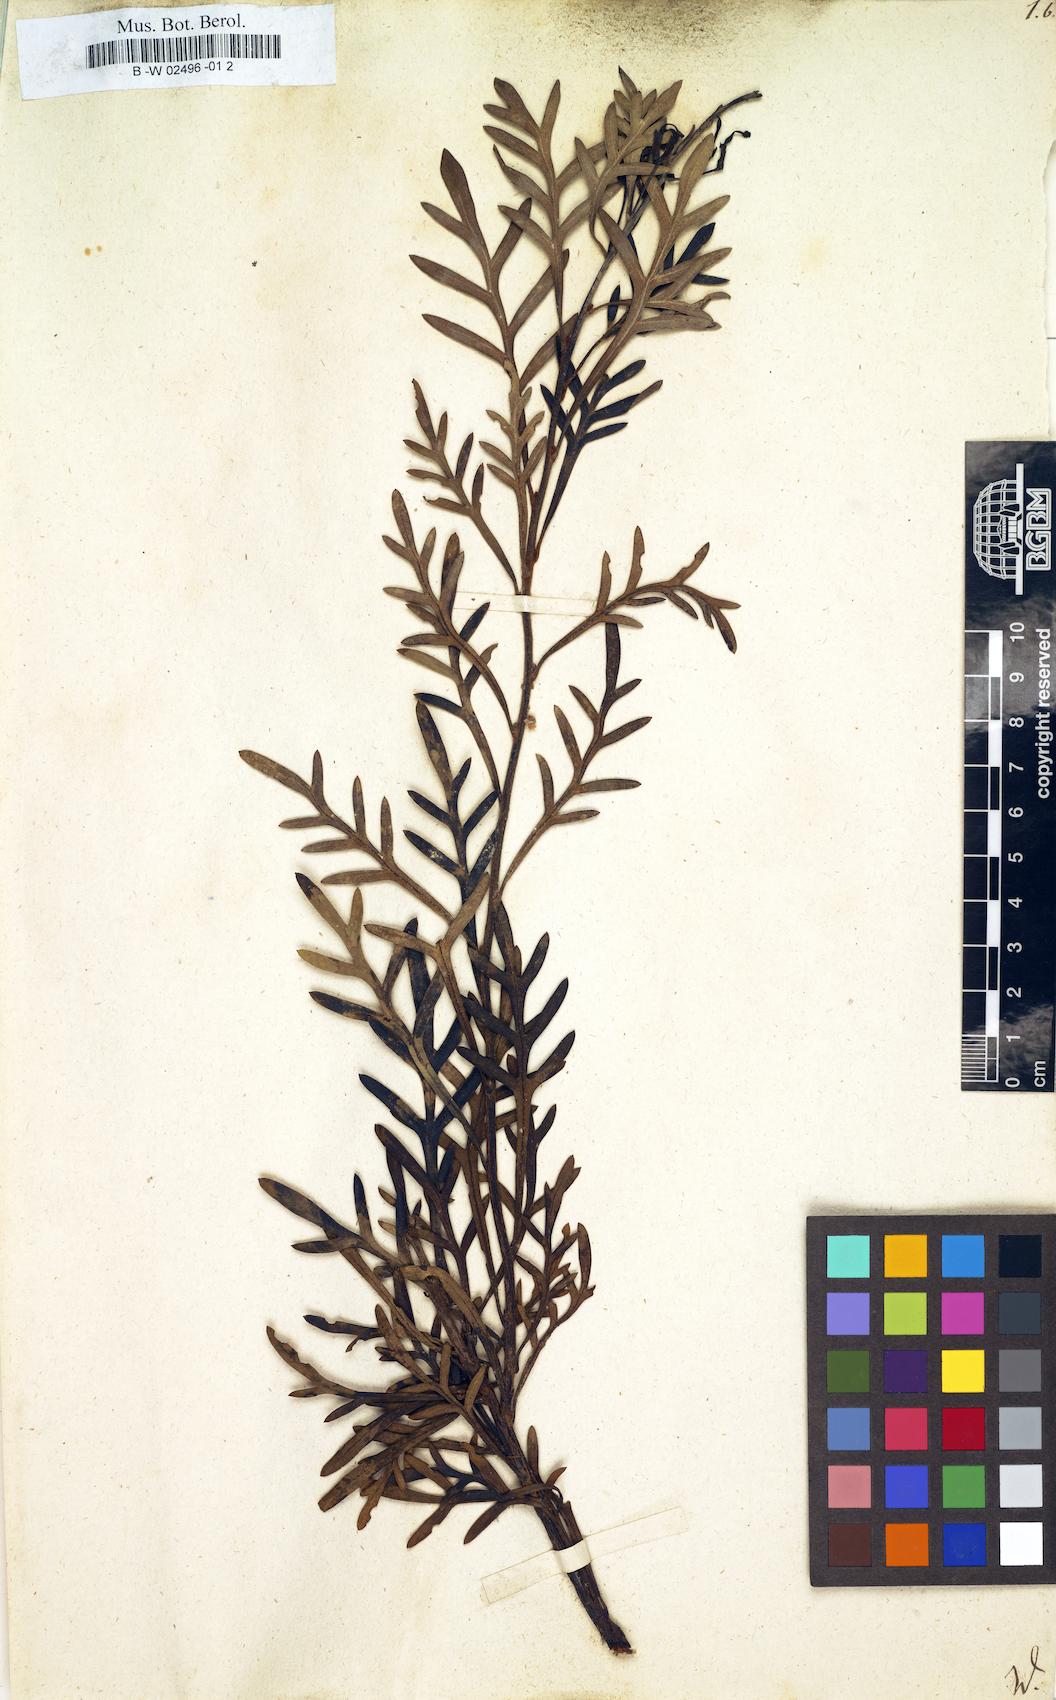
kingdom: Plantae
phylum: Tracheophyta
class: Magnoliopsida
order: Proteales
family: Proteaceae
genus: Lomatia
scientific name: Lomatia tinctoria
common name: Guitar plant
